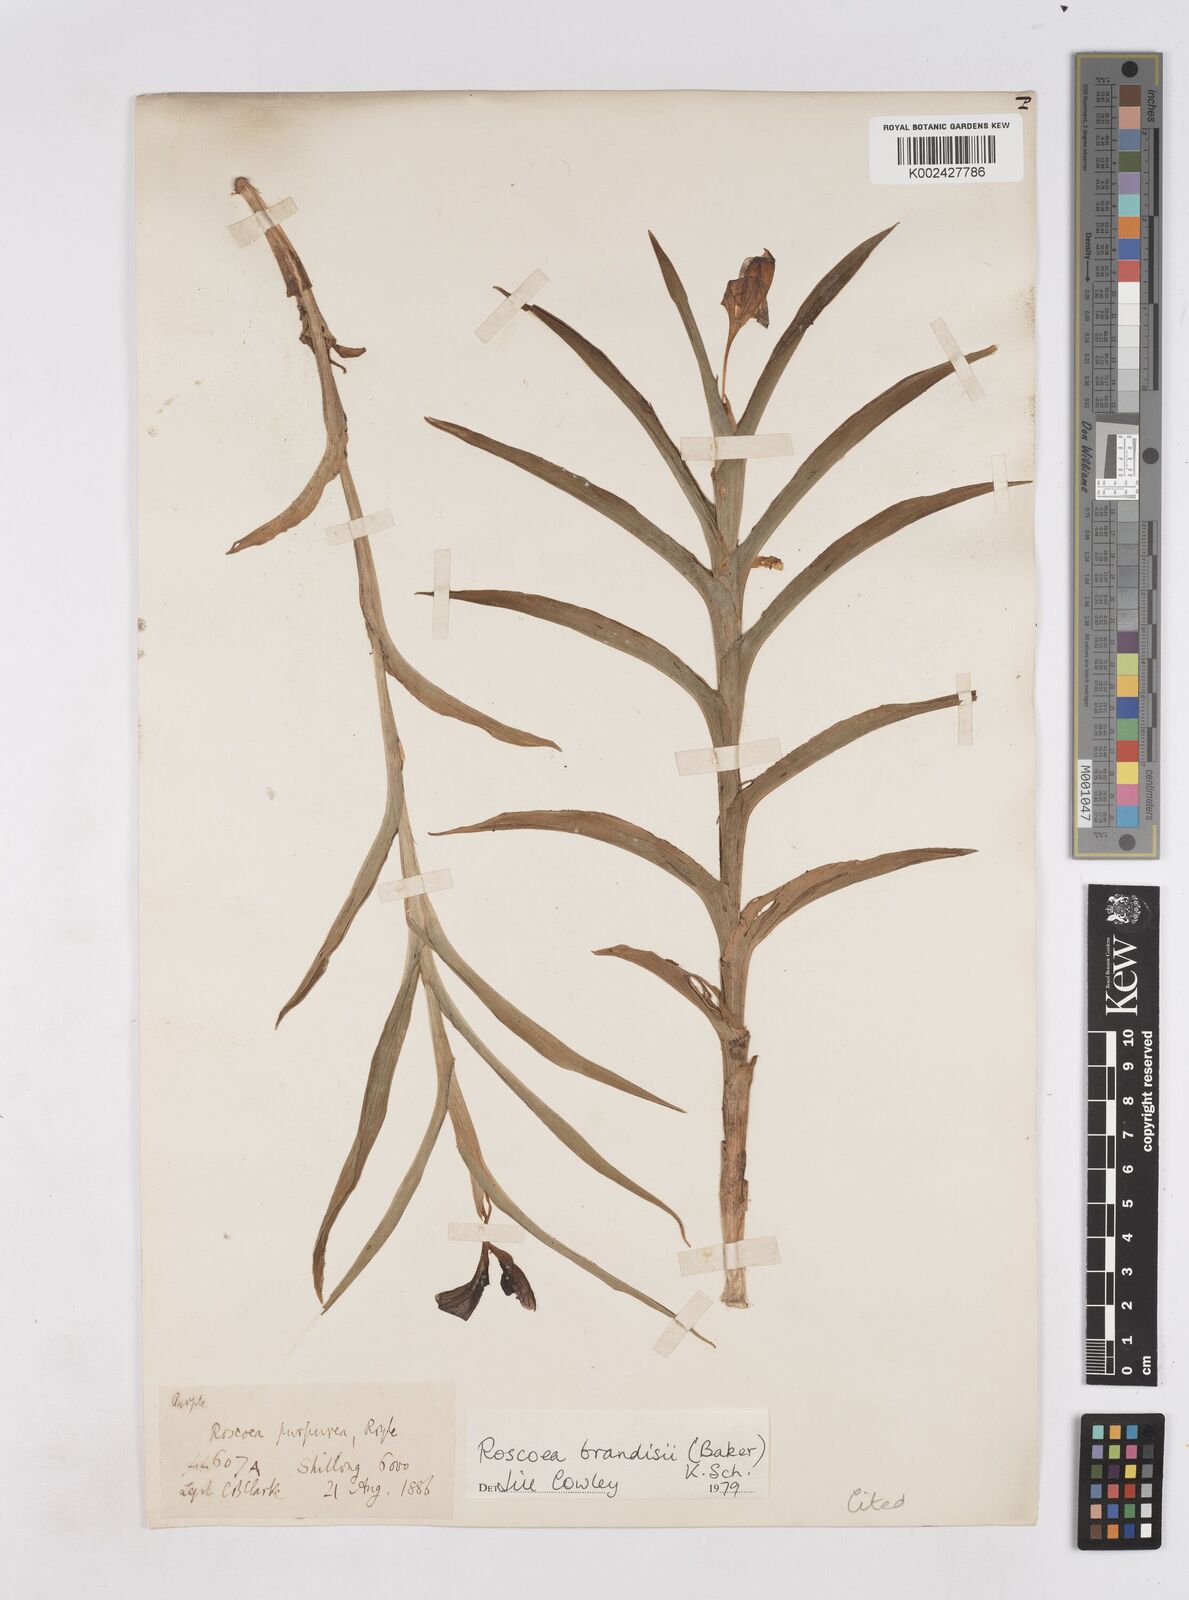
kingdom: Plantae
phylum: Tracheophyta
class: Liliopsida
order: Zingiberales
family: Zingiberaceae
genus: Roscoea
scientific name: Roscoea brandisii
